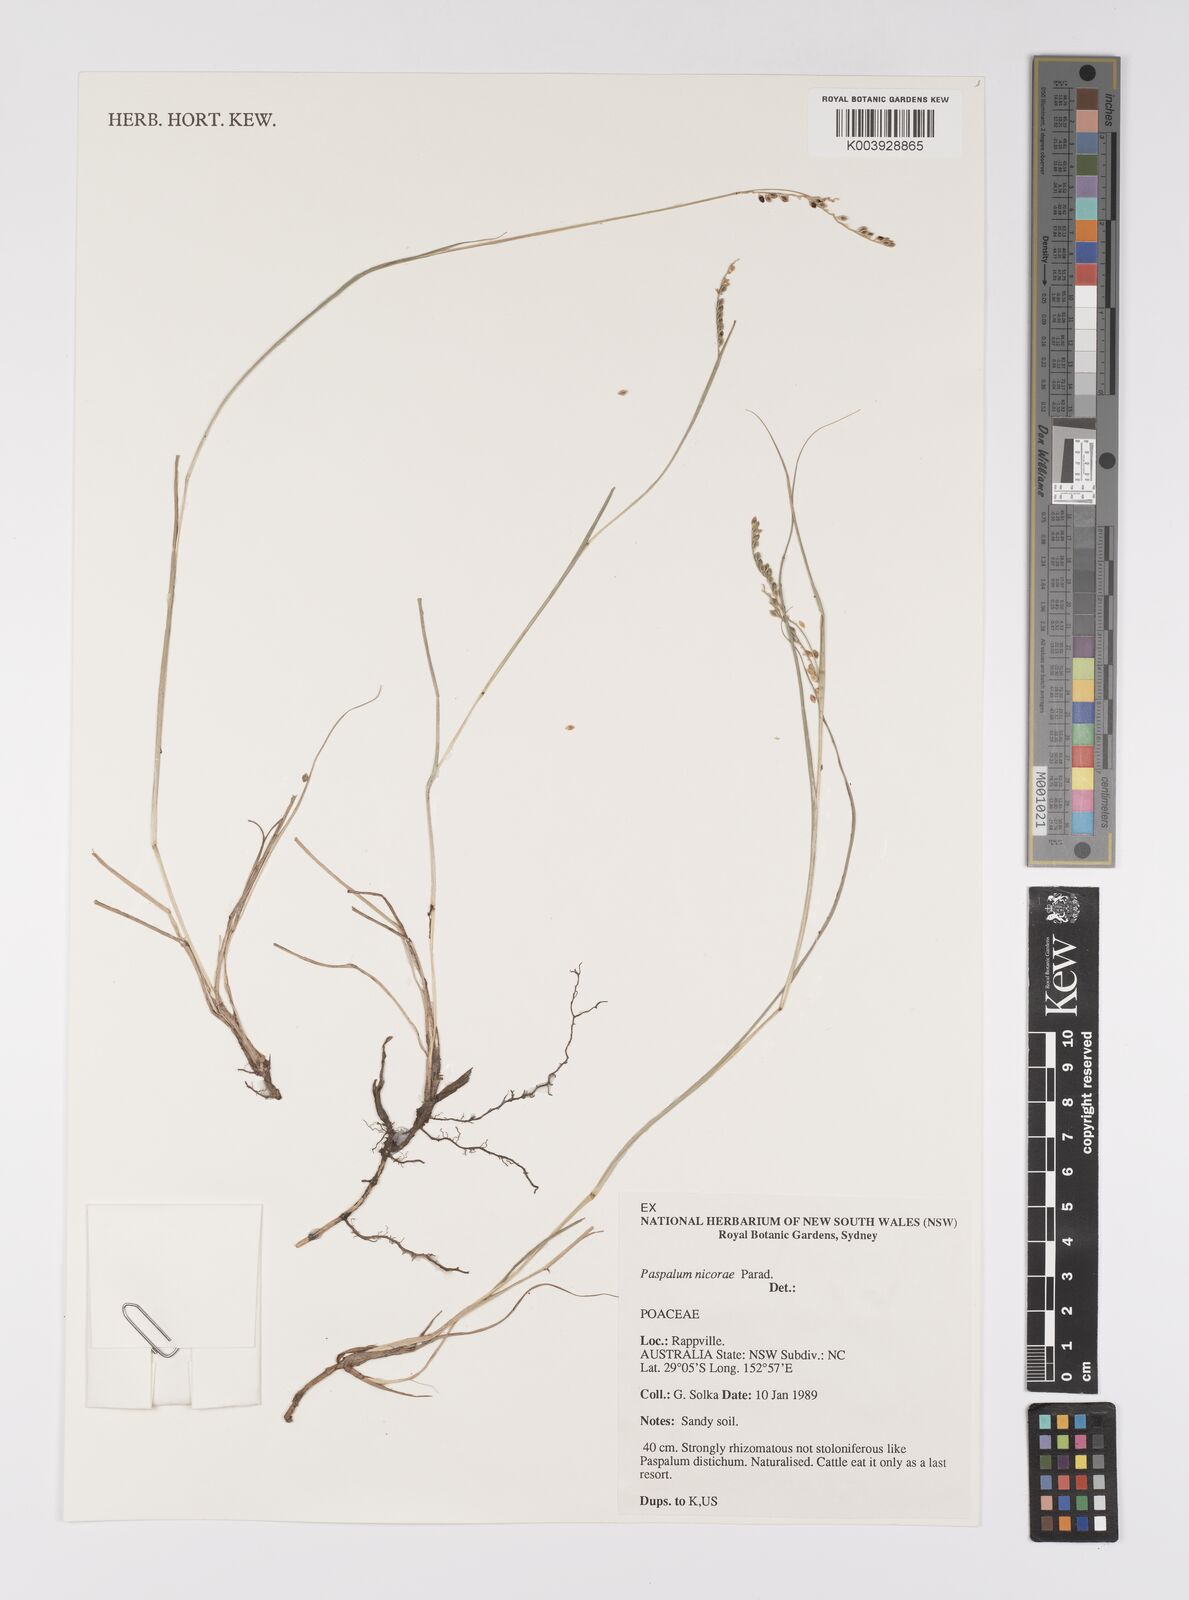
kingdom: Plantae
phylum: Tracheophyta
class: Liliopsida
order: Poales
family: Poaceae
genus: Paspalum
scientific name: Paspalum lepton
